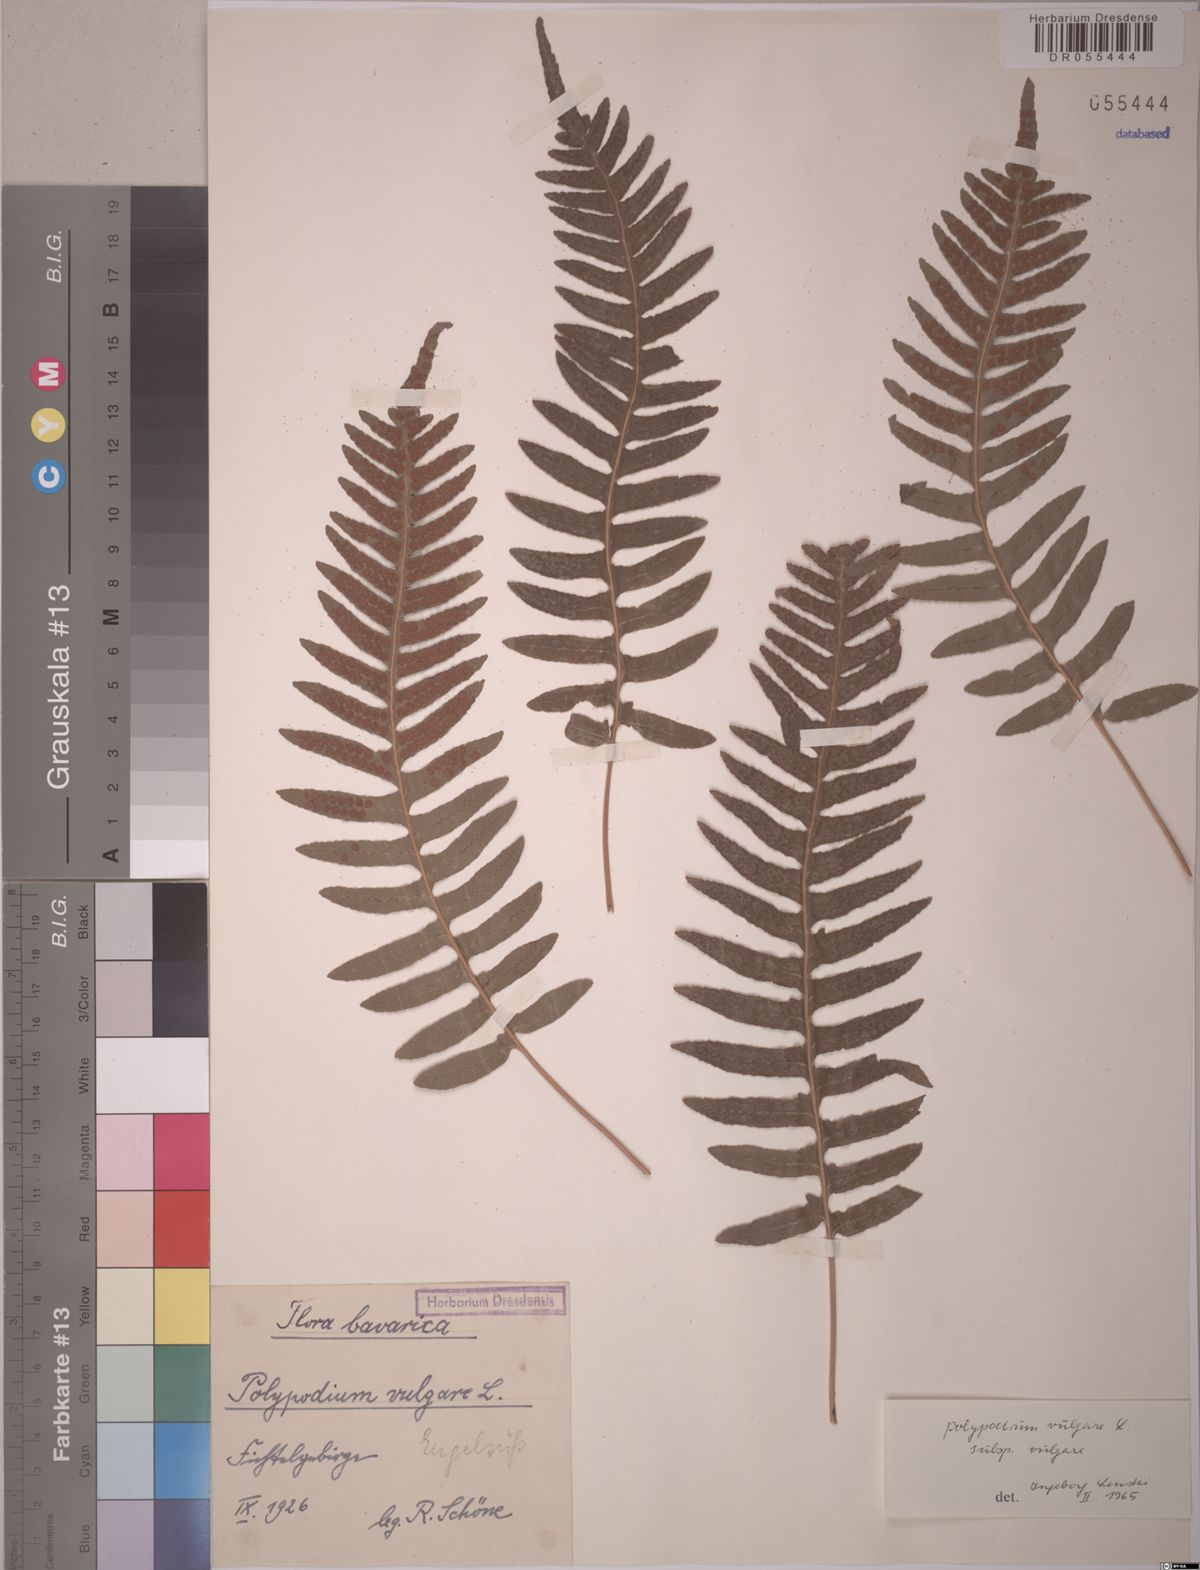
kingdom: Plantae
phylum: Tracheophyta
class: Polypodiopsida
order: Polypodiales
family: Polypodiaceae
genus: Polypodium
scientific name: Polypodium vulgare
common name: Common polypody
